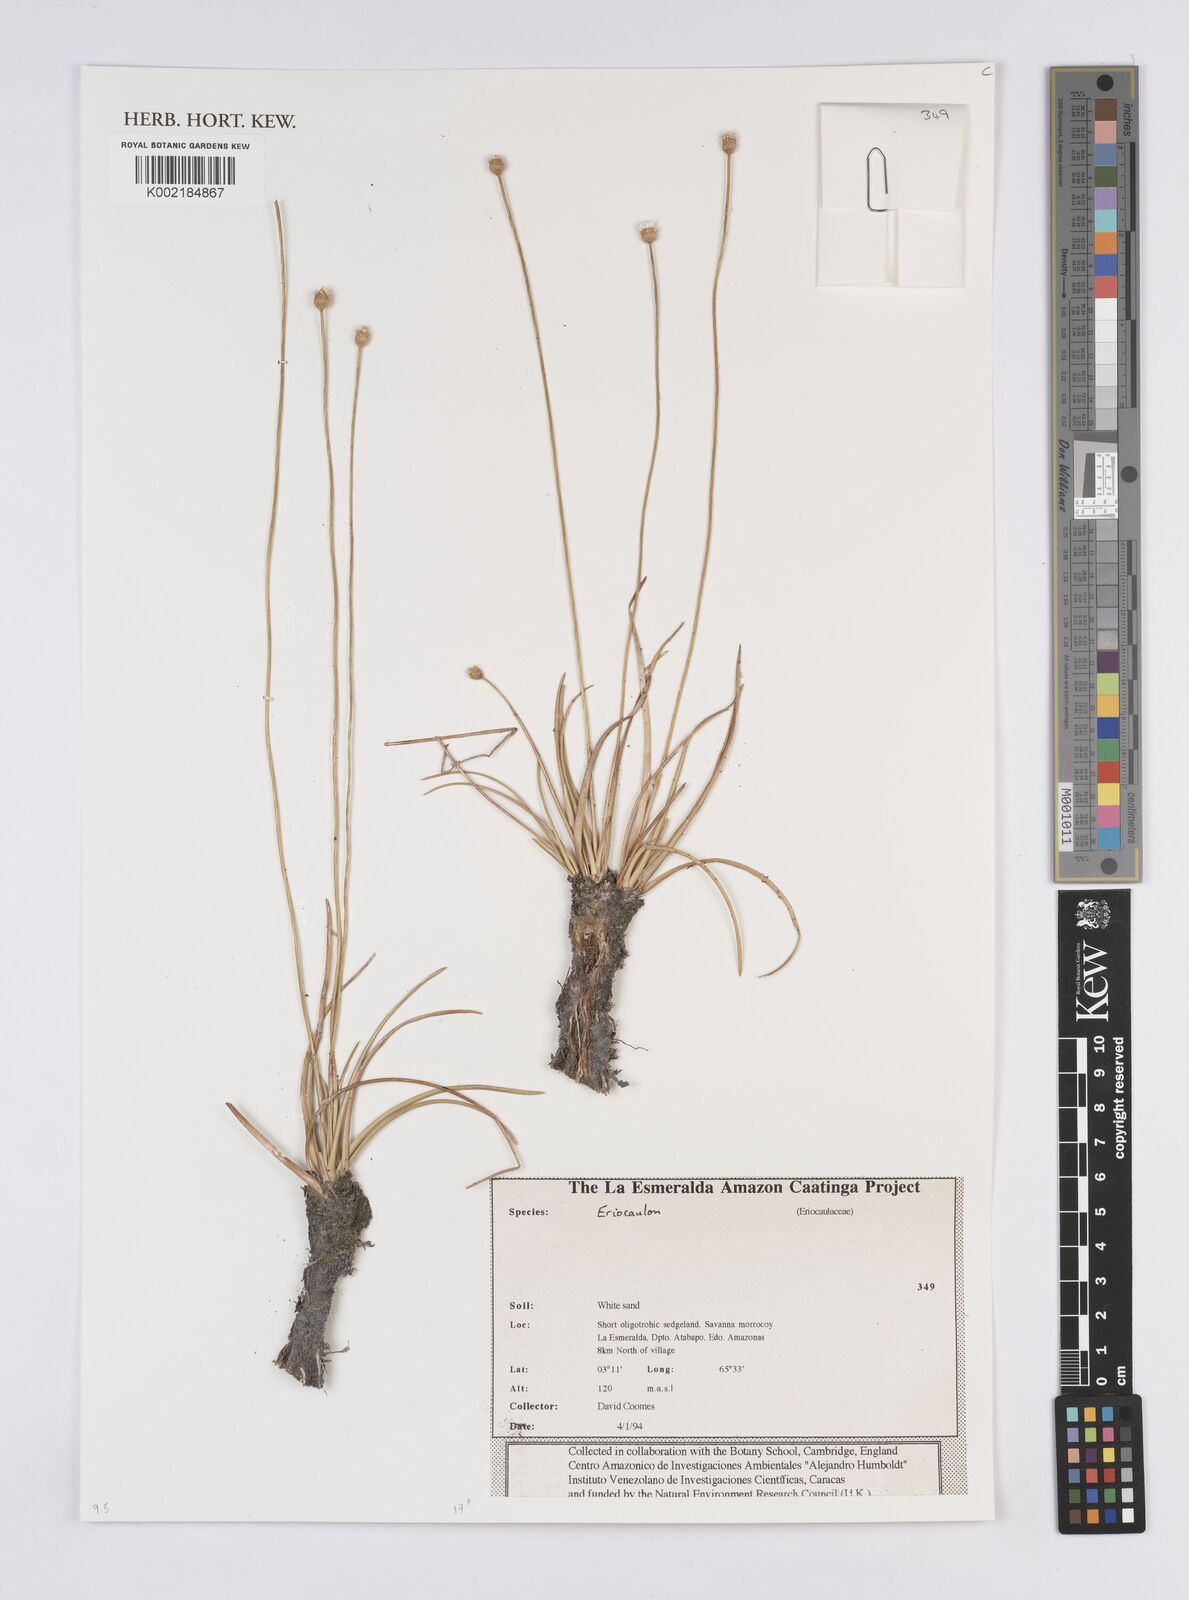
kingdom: Plantae
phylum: Tracheophyta
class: Liliopsida
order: Poales
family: Eriocaulaceae
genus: Eriocaulon
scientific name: Eriocaulon
